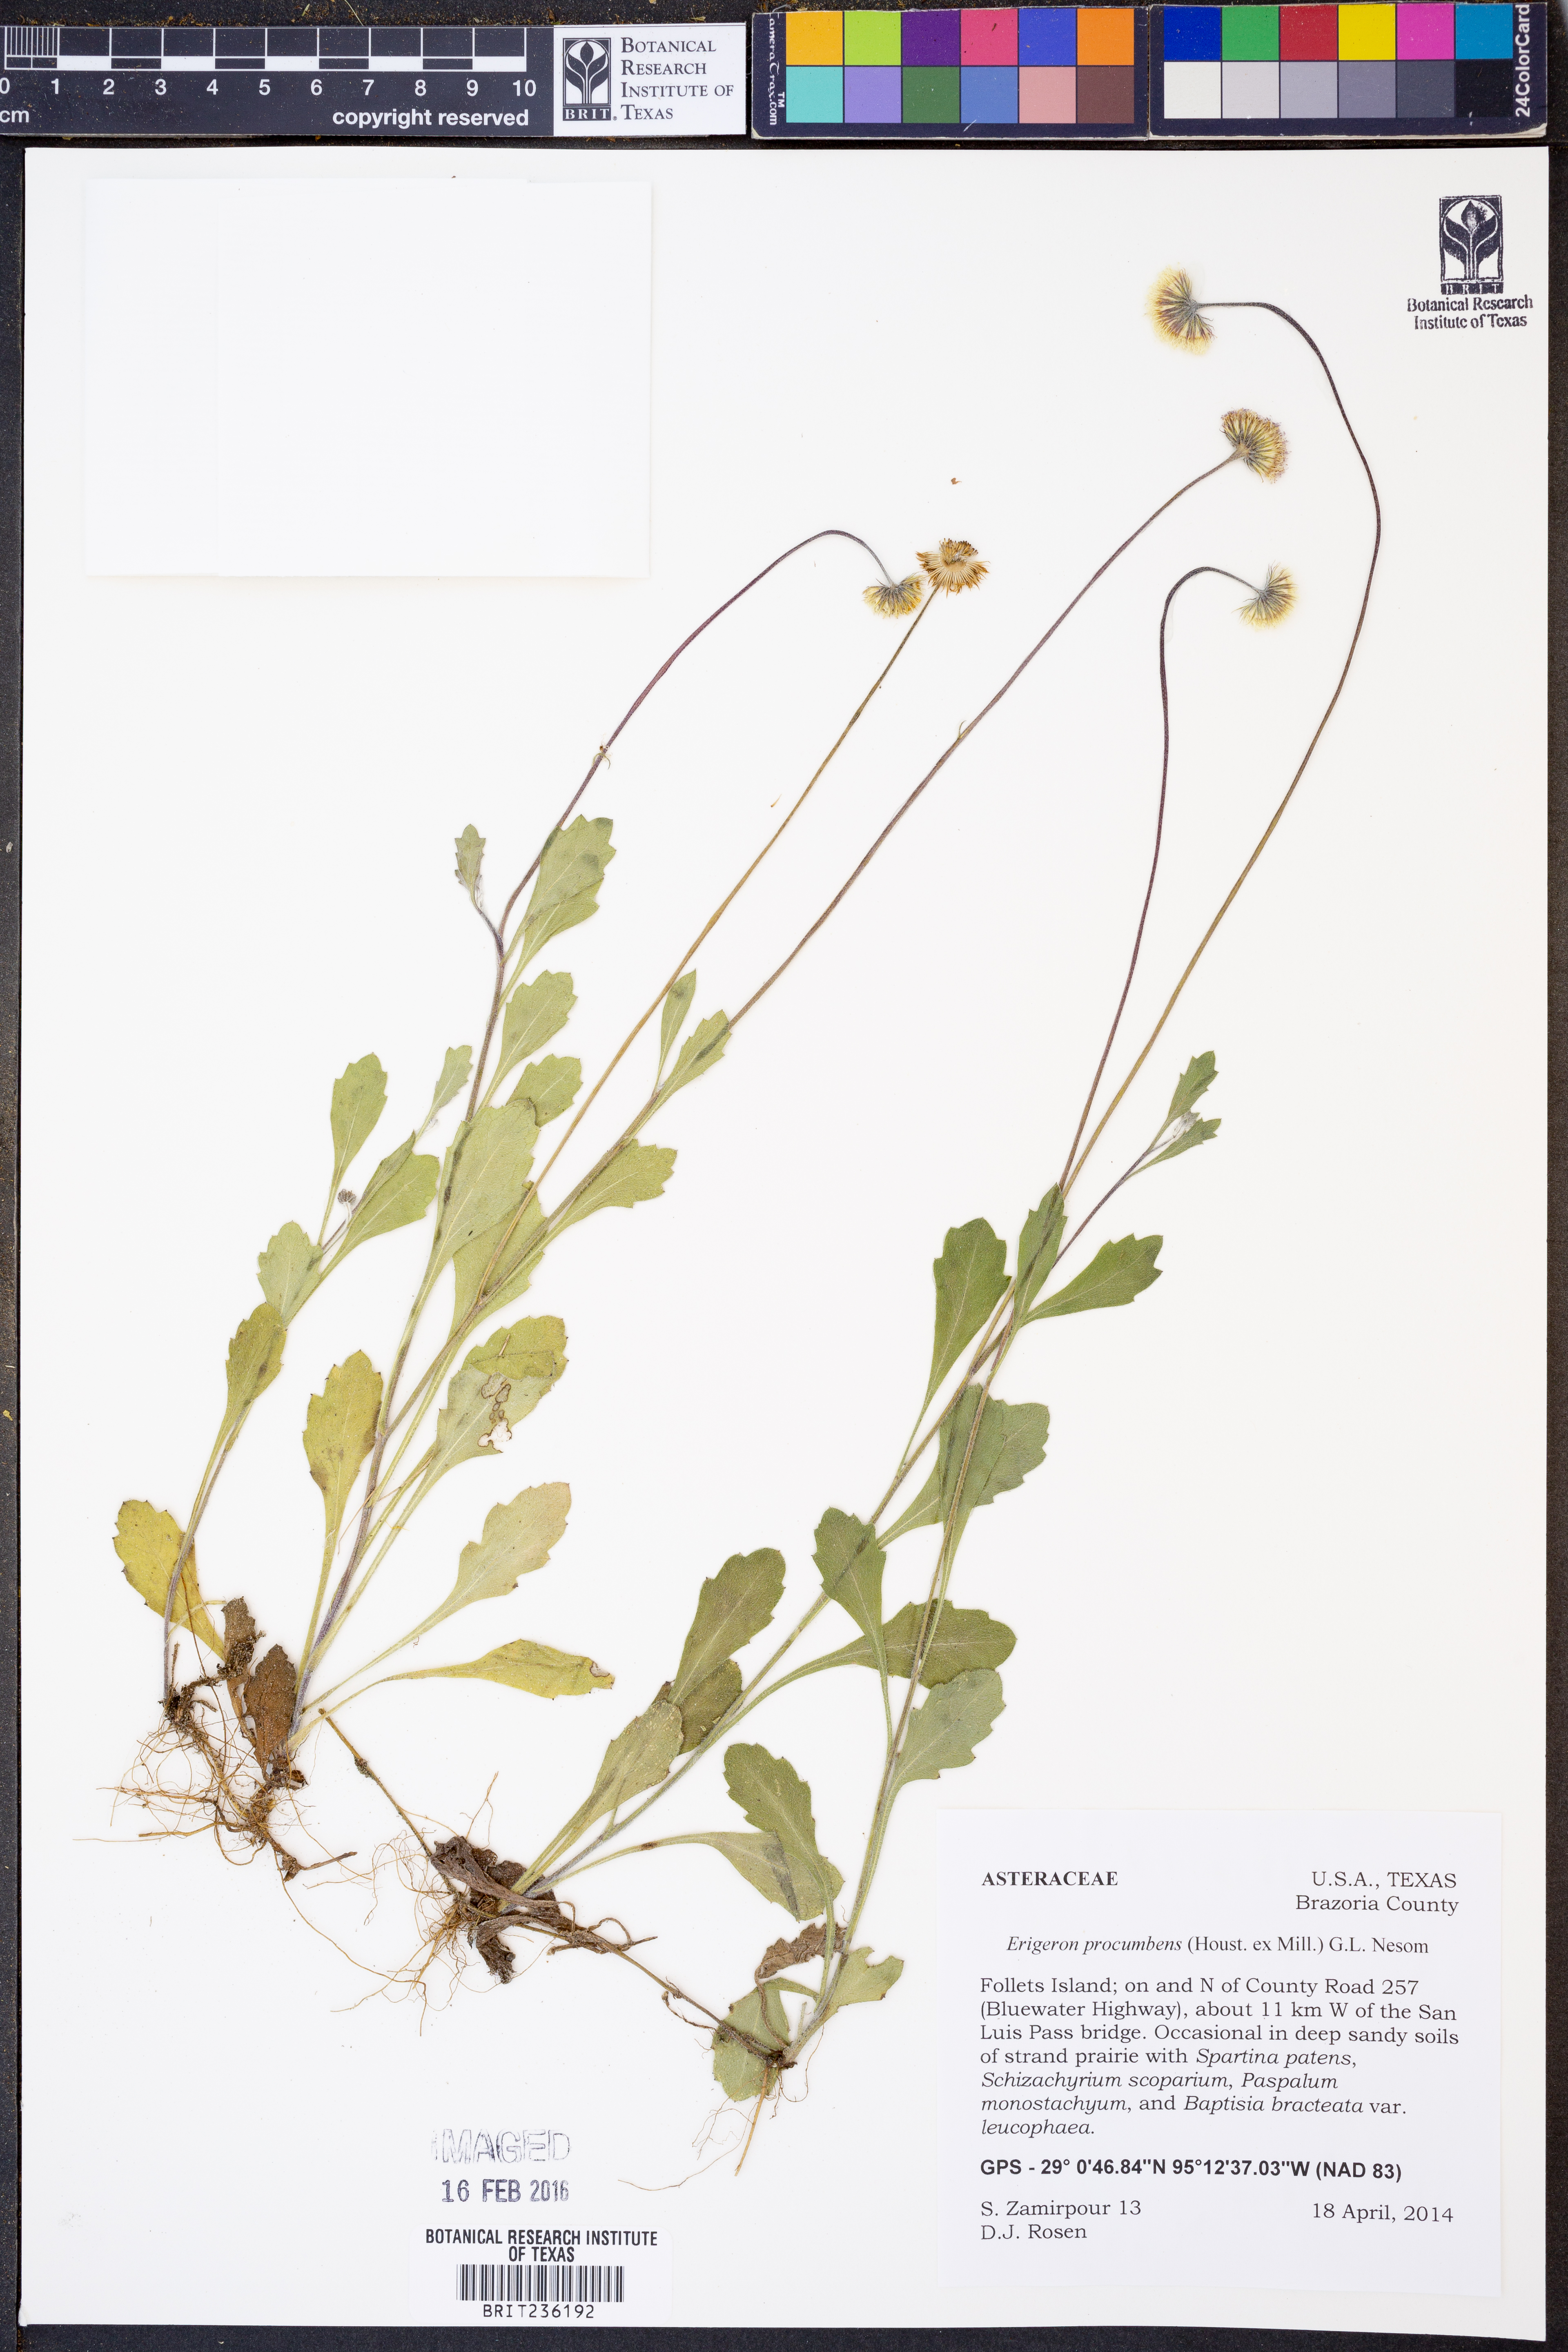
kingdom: Plantae
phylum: Tracheophyta
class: Magnoliopsida
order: Asterales
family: Asteraceae
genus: Erigeron
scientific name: Erigeron procumbens
